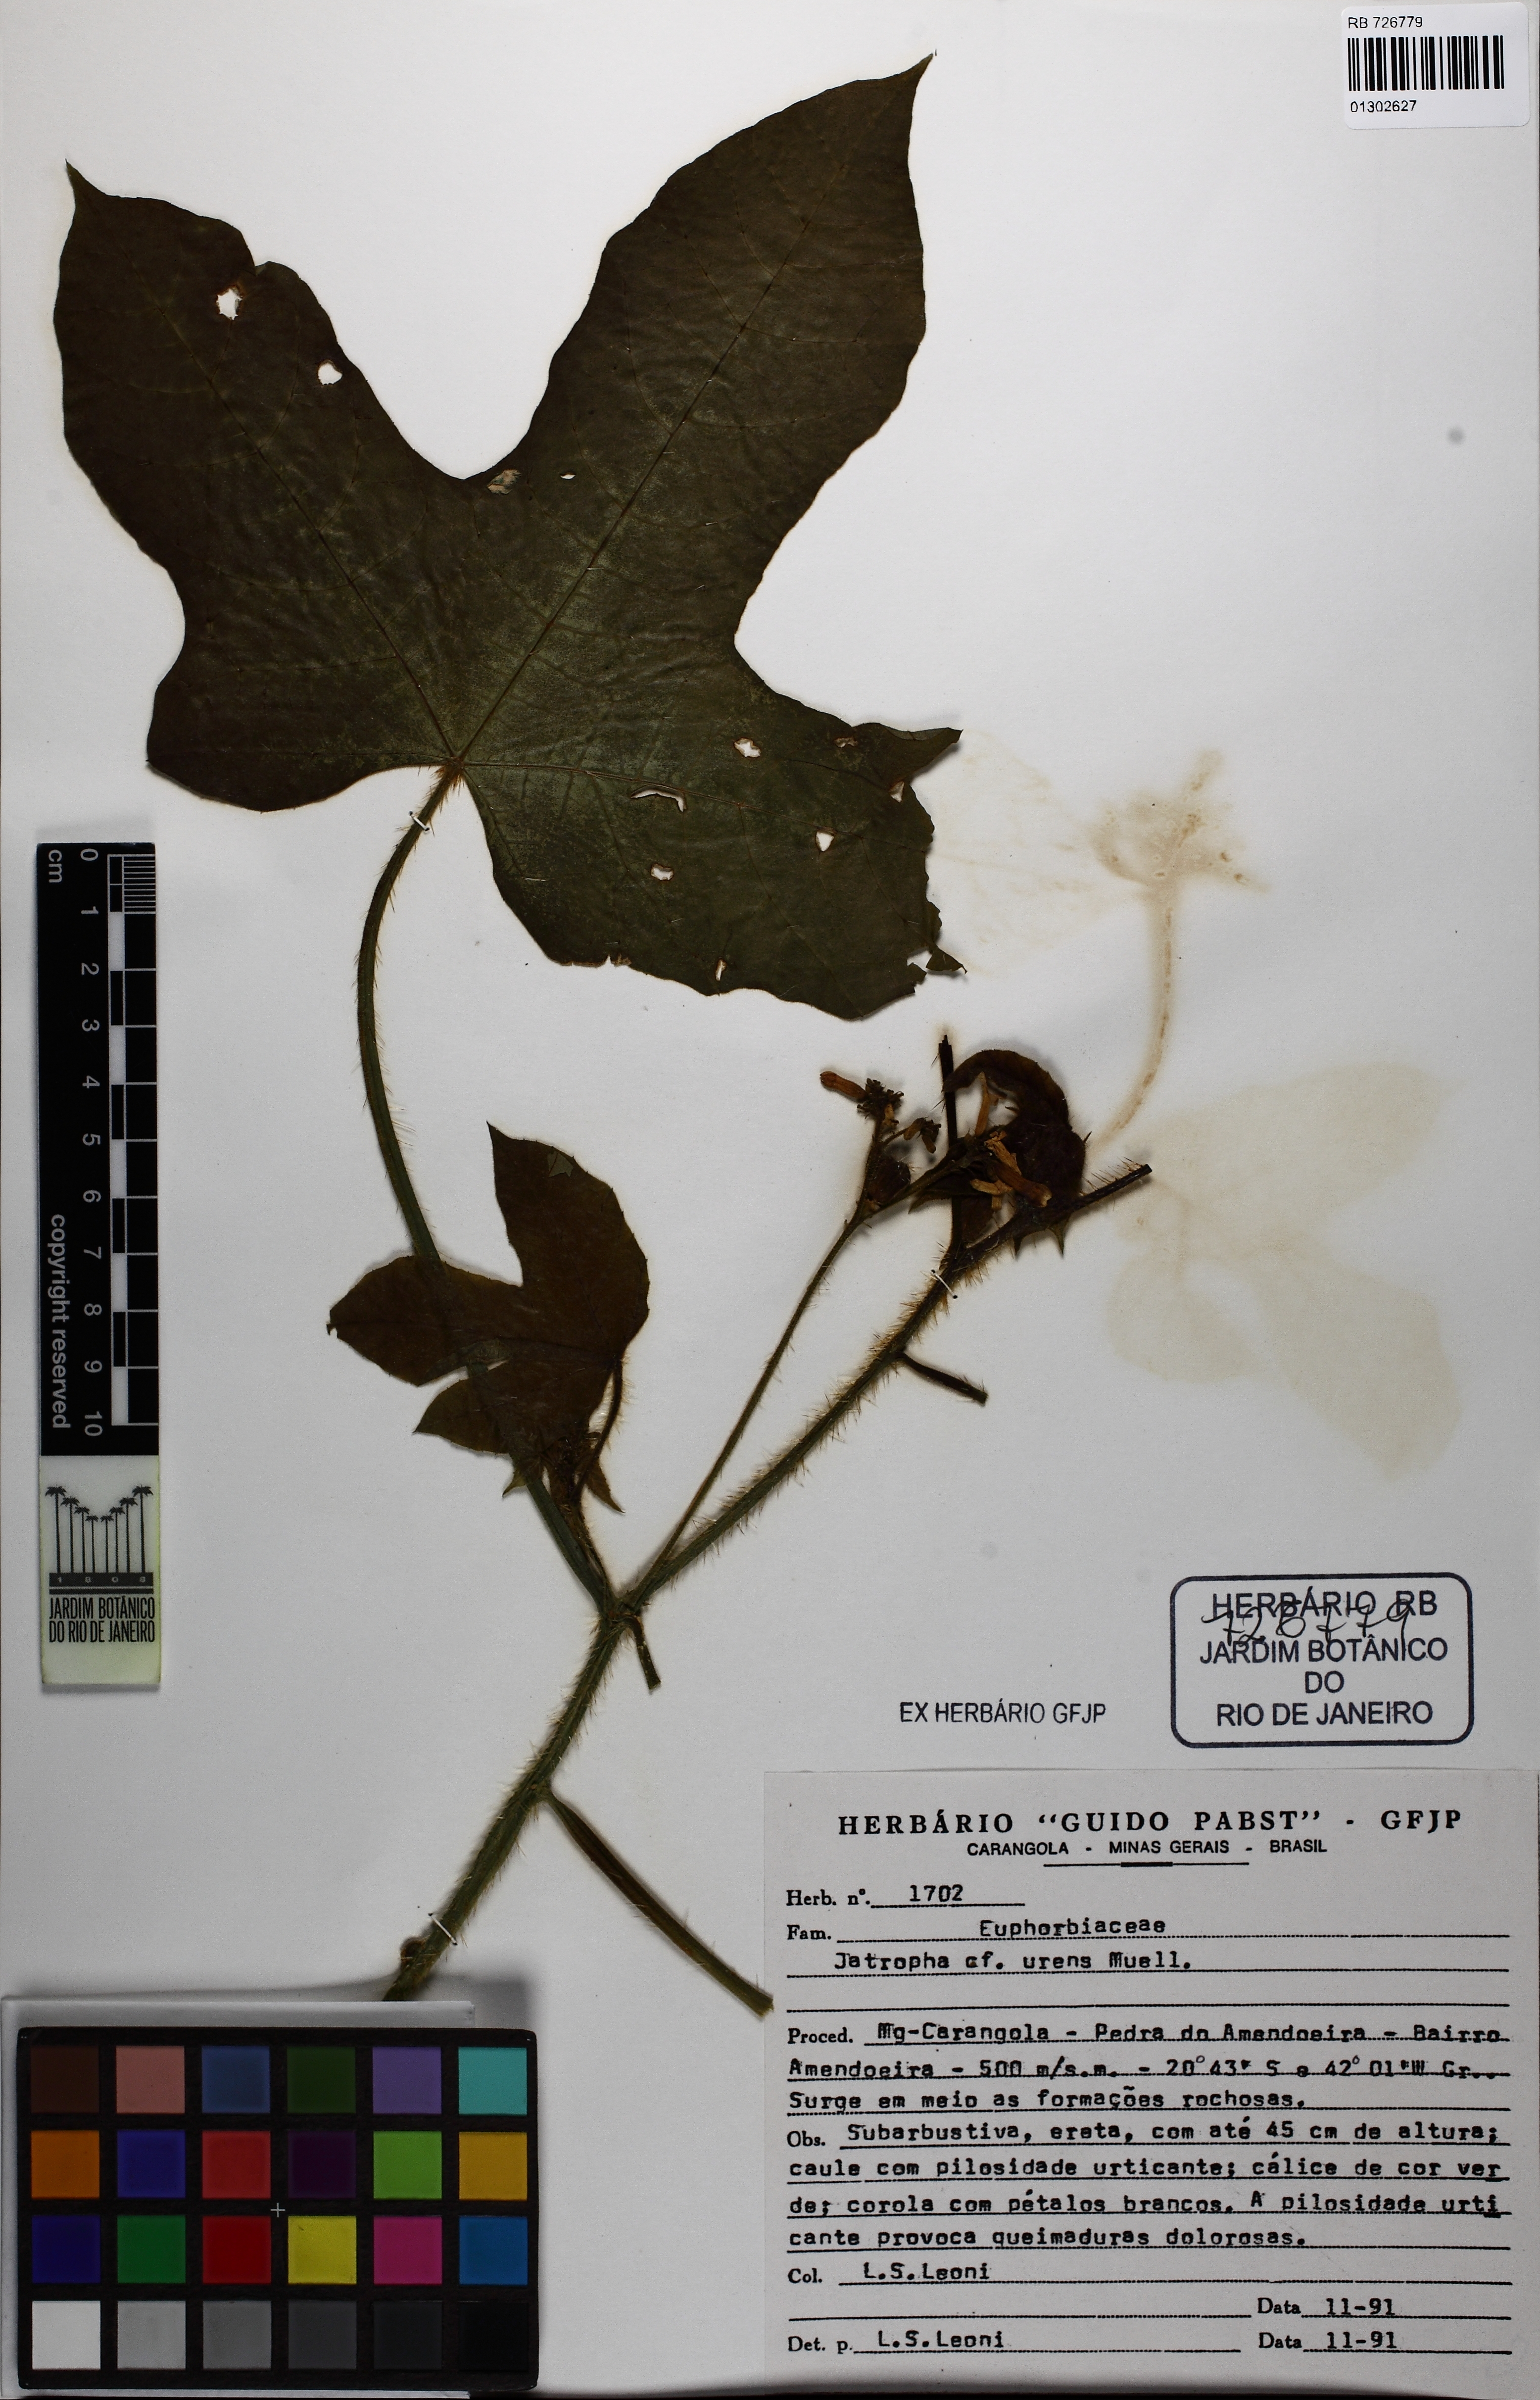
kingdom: Plantae
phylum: Tracheophyta
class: Magnoliopsida
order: Malpighiales
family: Euphorbiaceae
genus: Cnidoscolus
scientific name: Cnidoscolus urens
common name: Bull-nettle
